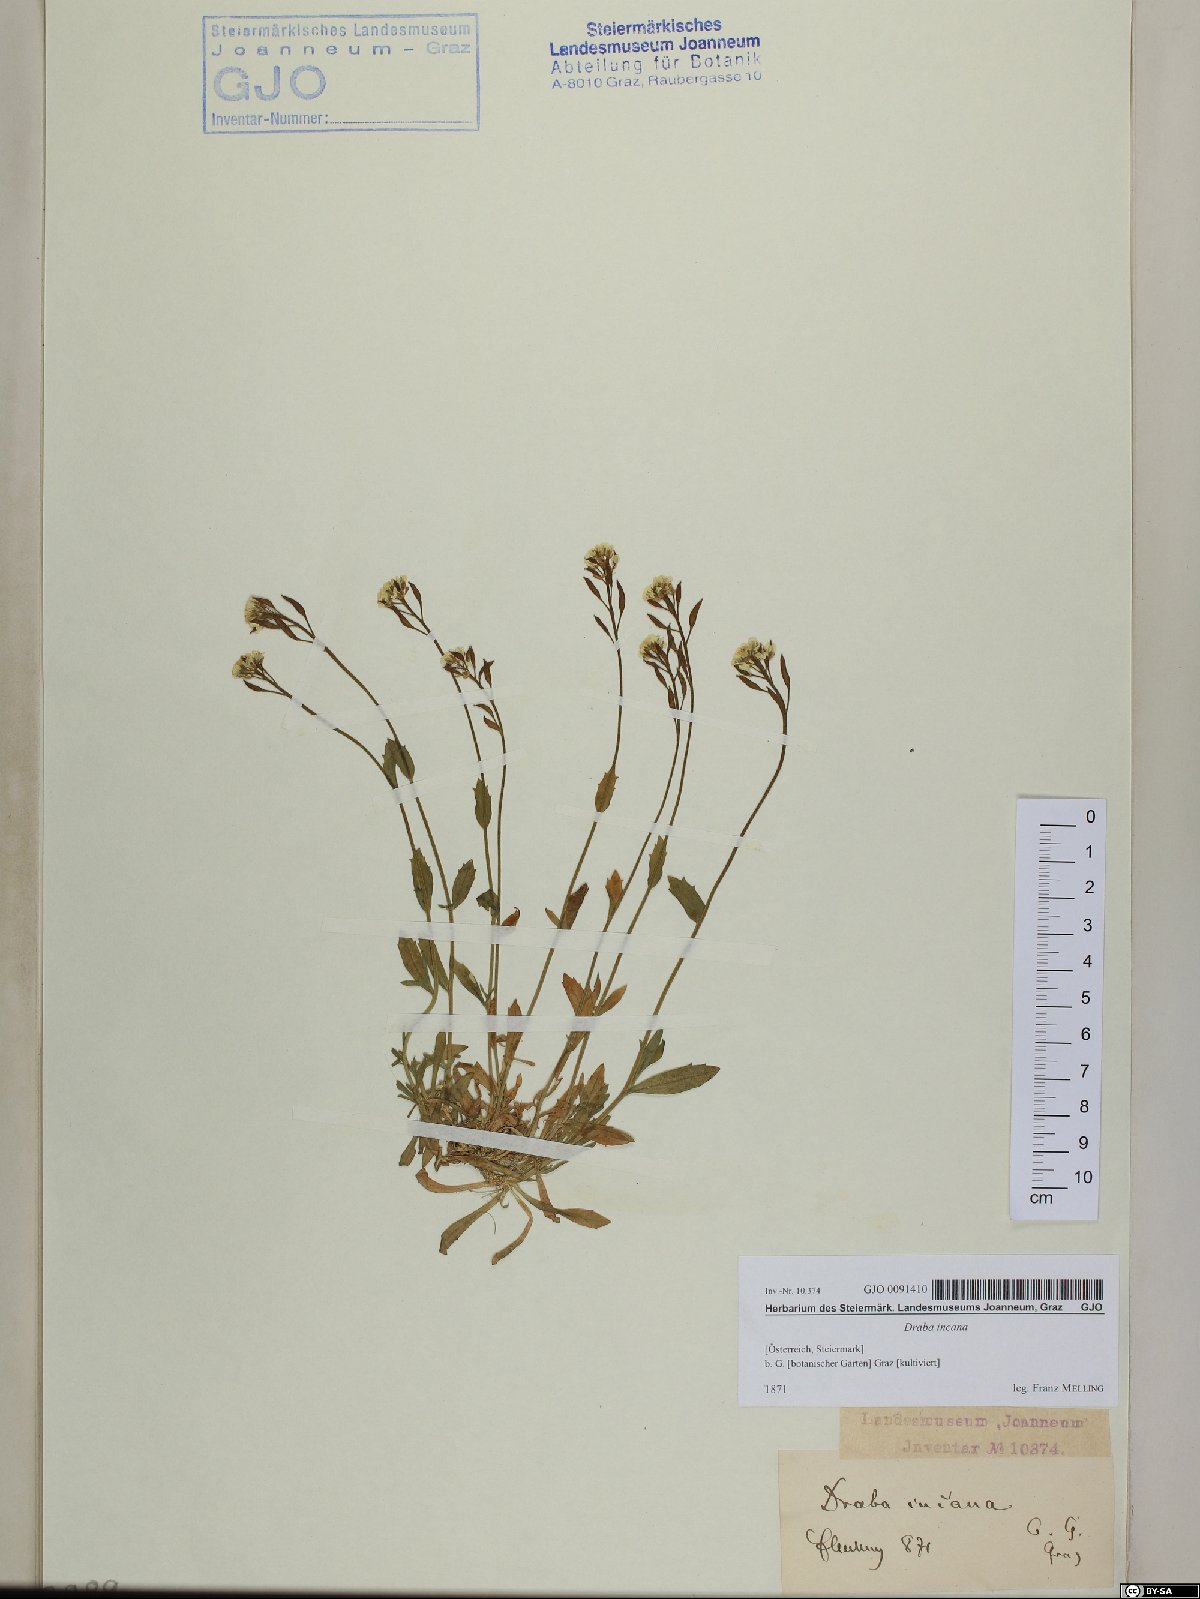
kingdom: Plantae
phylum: Tracheophyta
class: Magnoliopsida
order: Brassicales
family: Brassicaceae
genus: Draba
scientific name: Draba incana
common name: Hoary whitlow-grass
